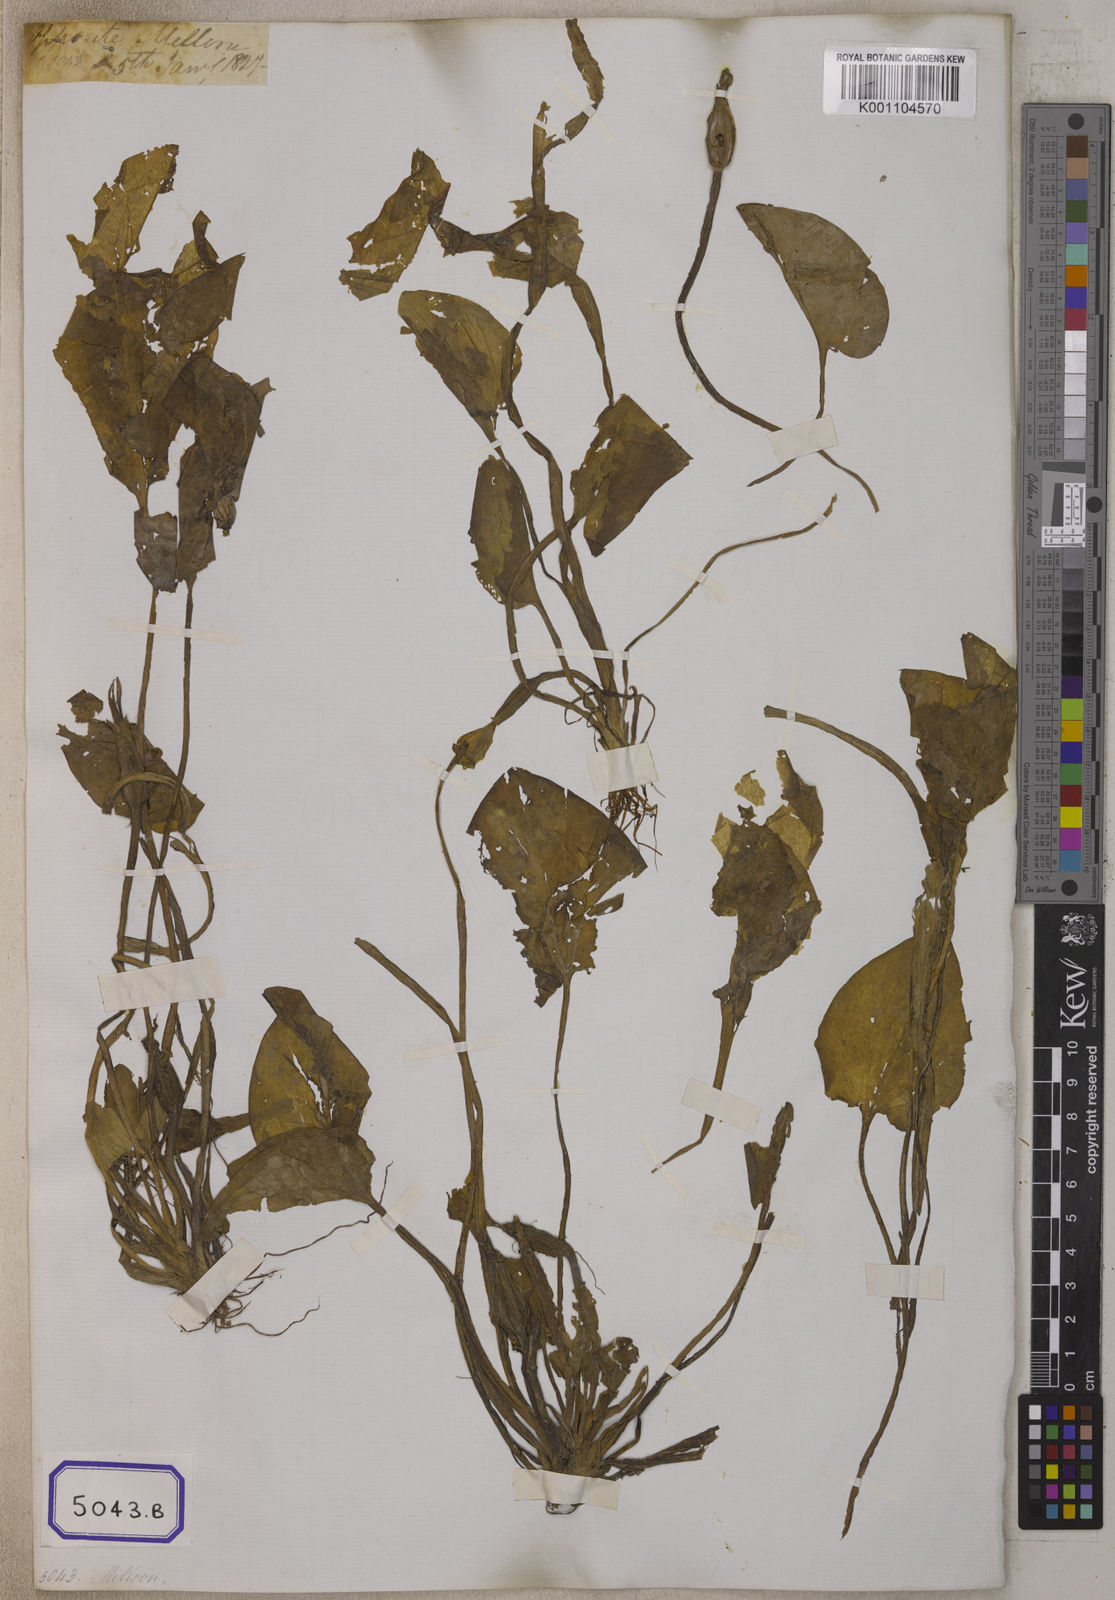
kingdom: Plantae
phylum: Tracheophyta
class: Liliopsida
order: Alismatales
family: Hydrocharitaceae
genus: Ottelia
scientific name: Ottelia alismoides
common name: Duck-lettuce
